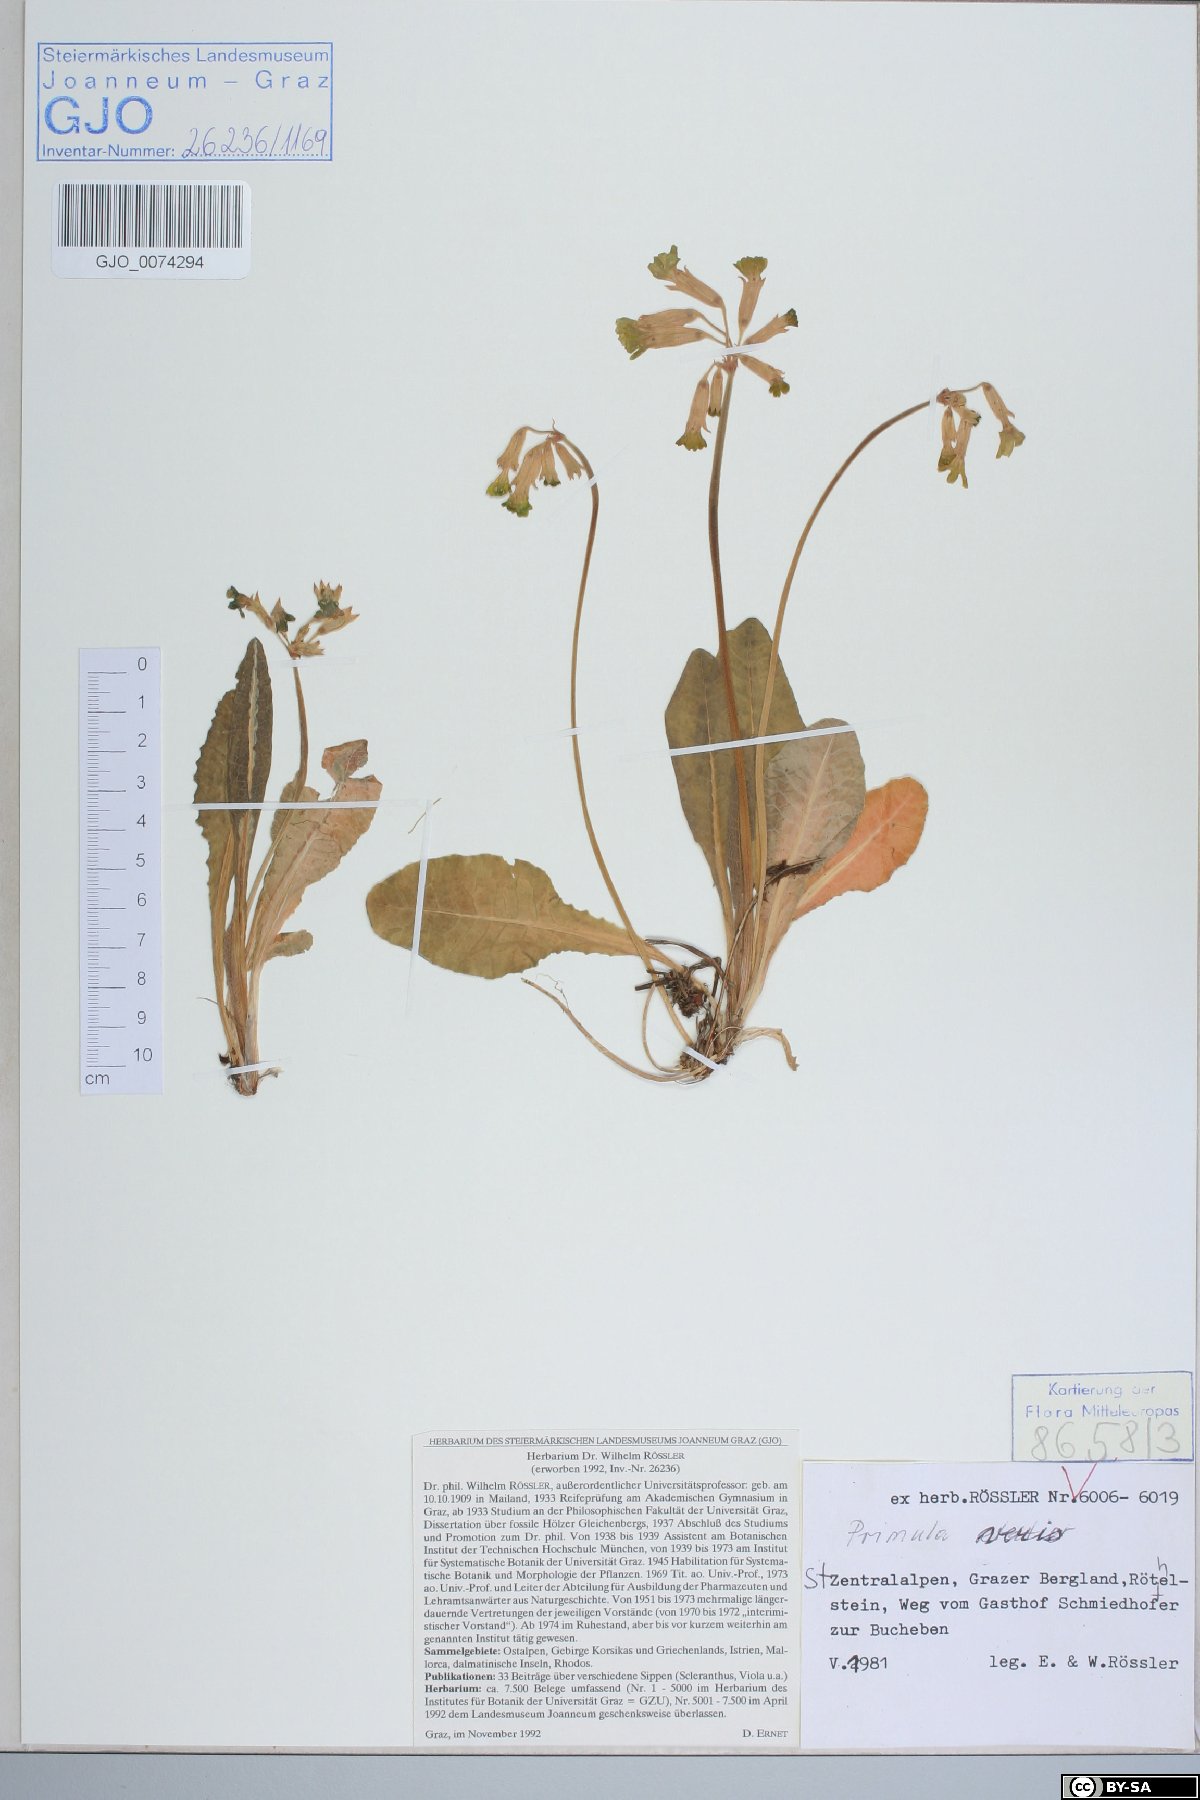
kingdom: Plantae
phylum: Tracheophyta
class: Magnoliopsida
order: Ericales
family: Primulaceae
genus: Primula
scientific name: Primula veris
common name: Cowslip
